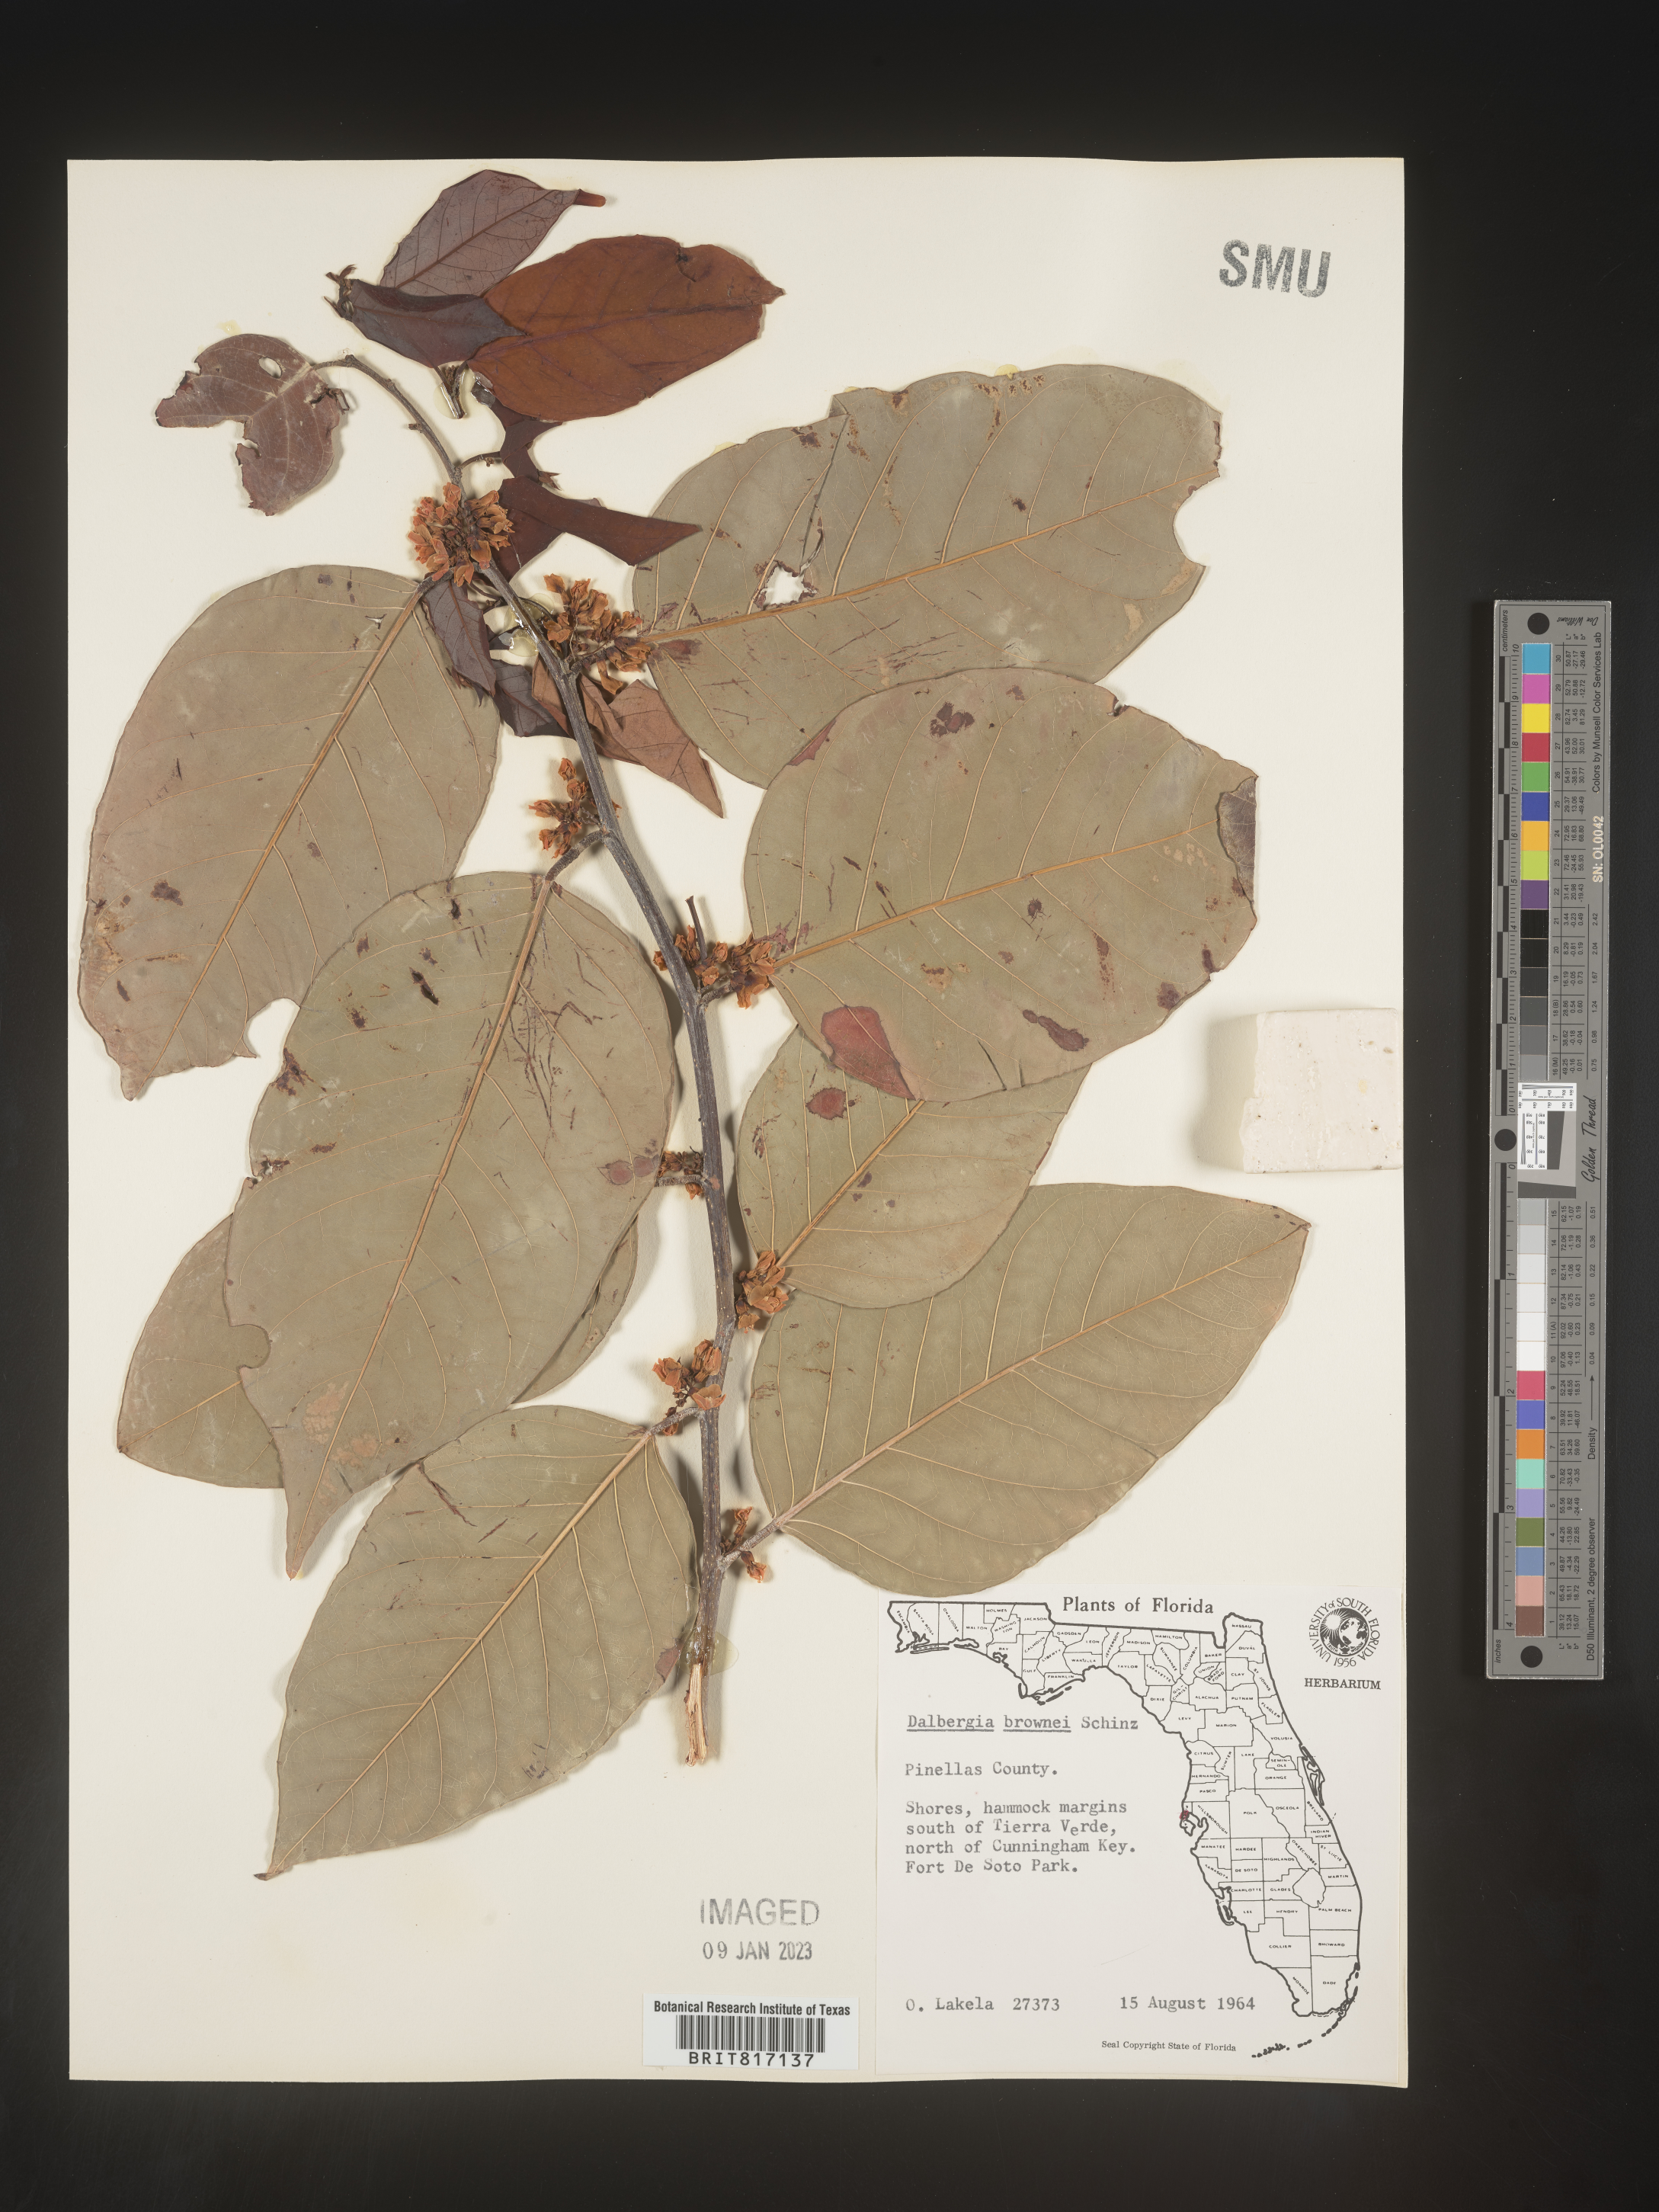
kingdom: Plantae
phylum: Tracheophyta
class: Magnoliopsida
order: Fabales
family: Fabaceae
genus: Dalbergia
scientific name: Dalbergia
